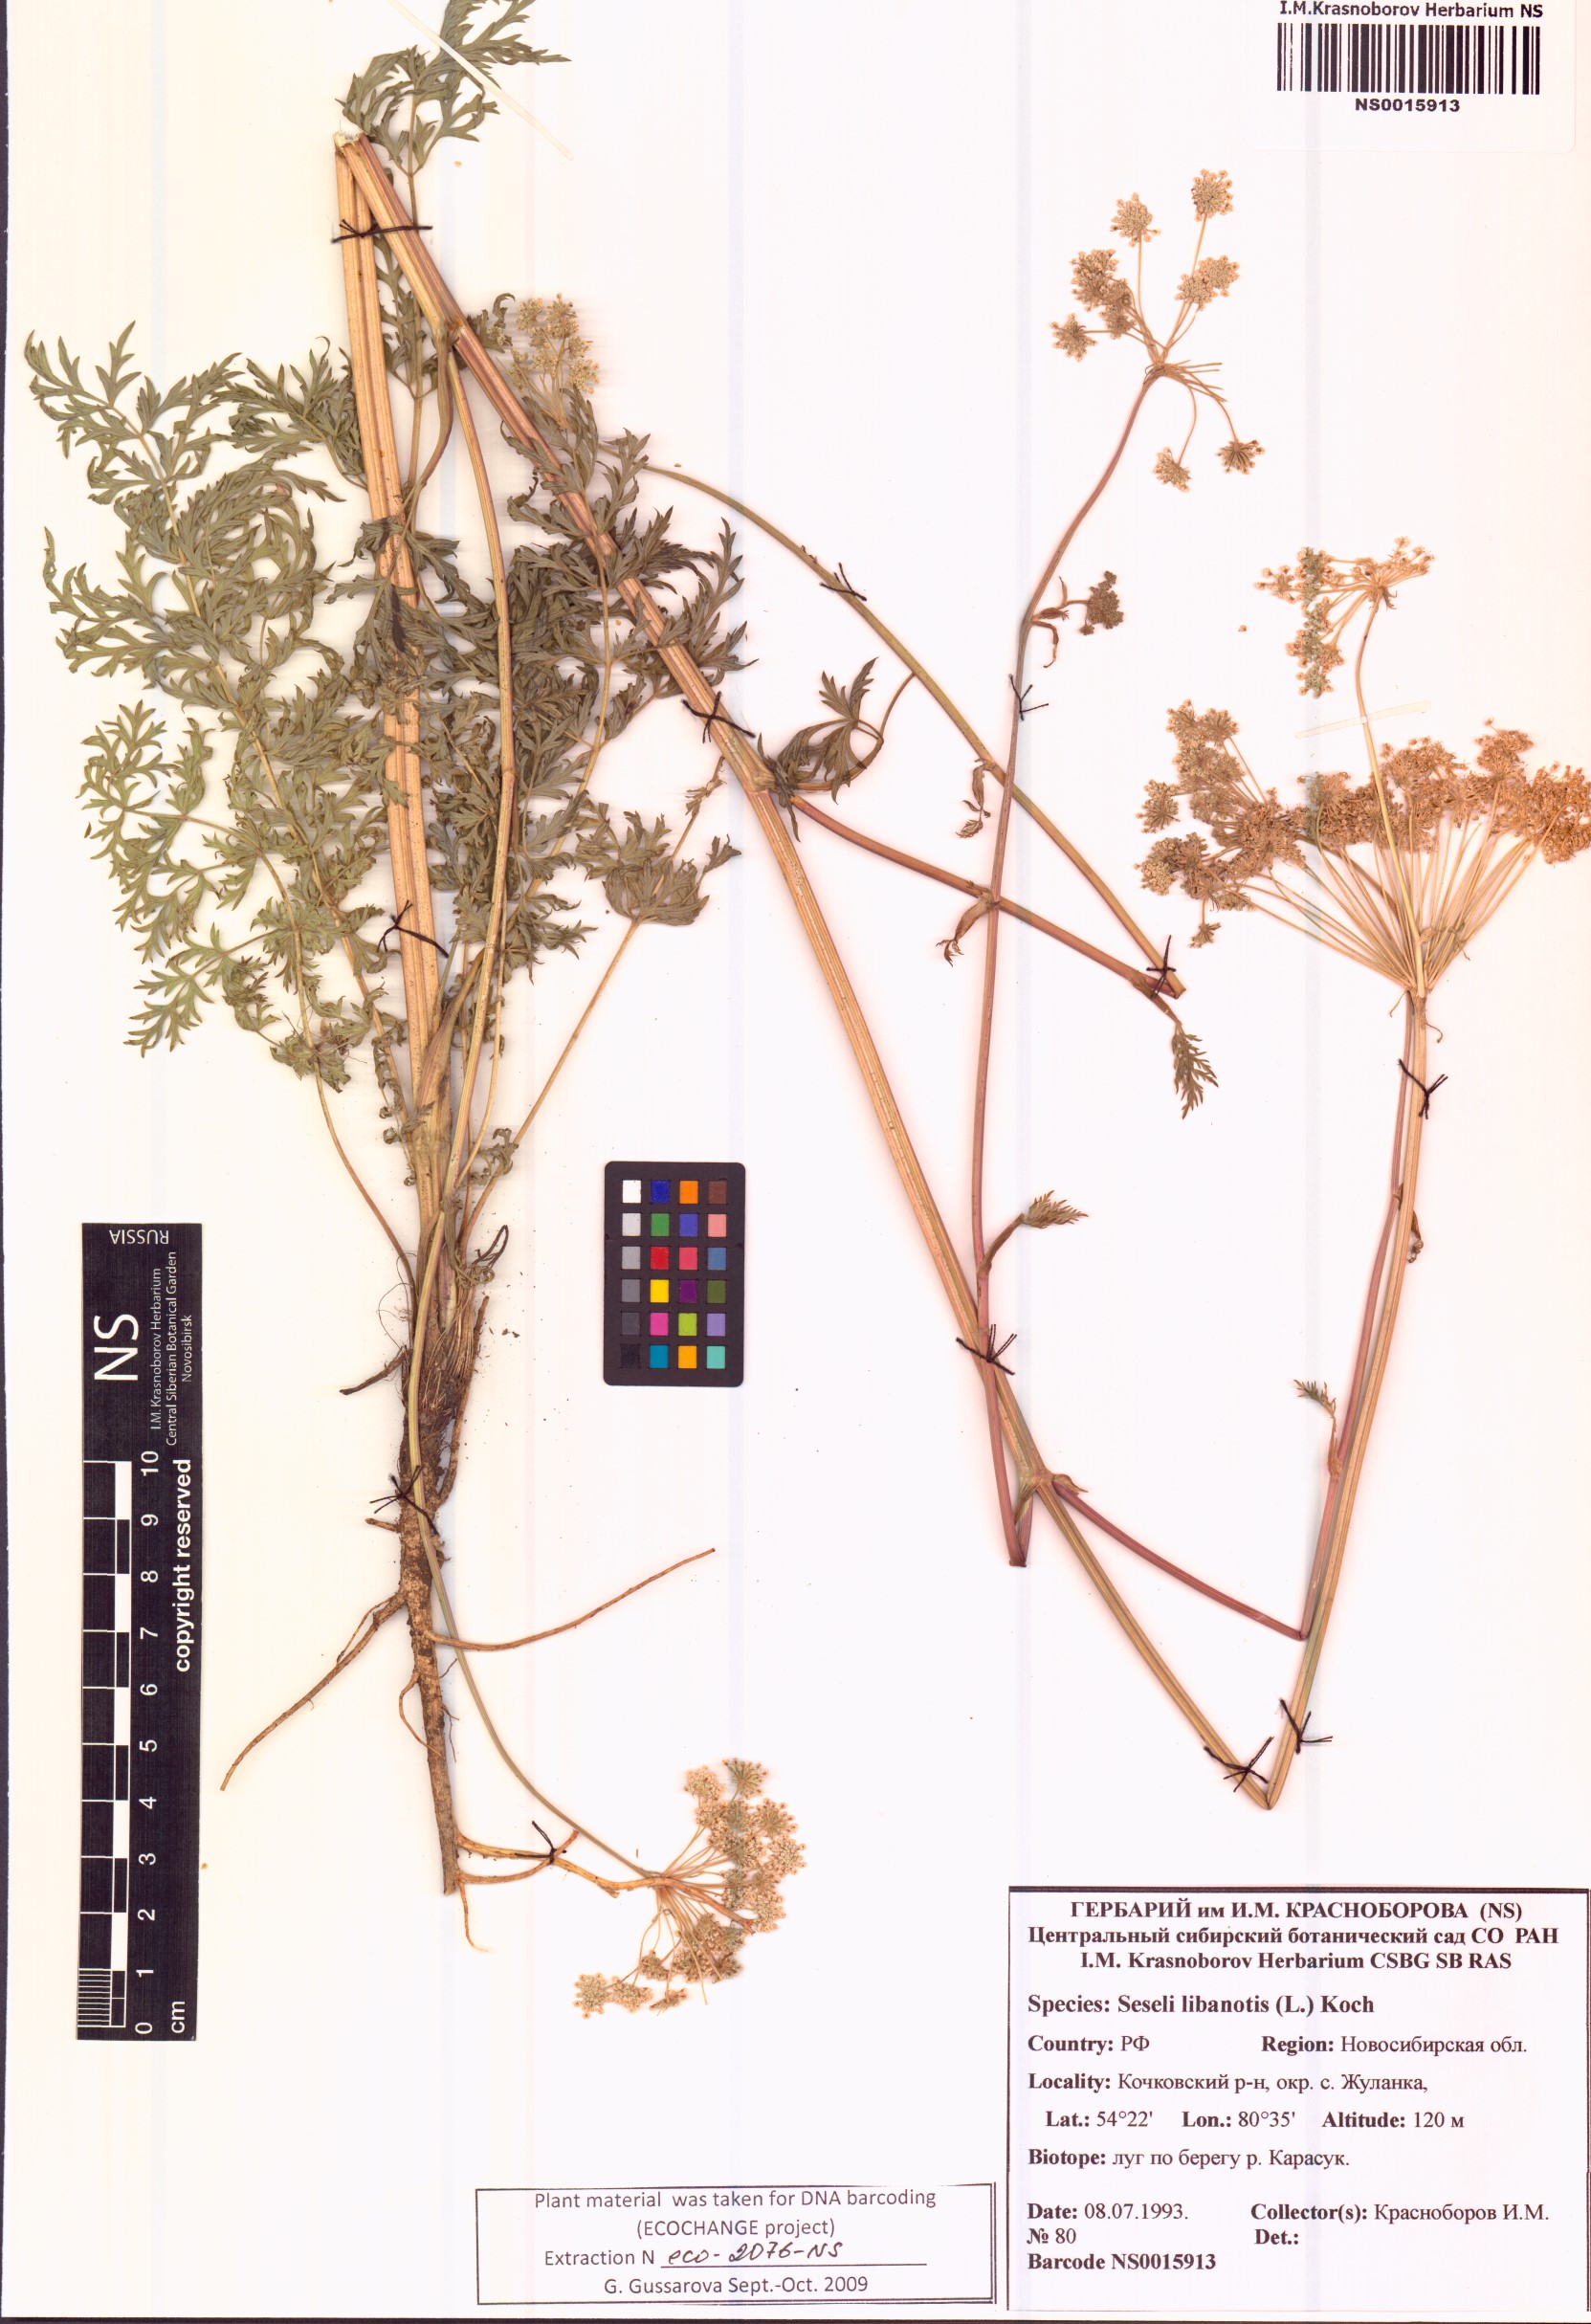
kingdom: Plantae
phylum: Tracheophyta
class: Magnoliopsida
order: Apiales
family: Apiaceae
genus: Seseli
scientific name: Seseli libanotis
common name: Mooncarrot
